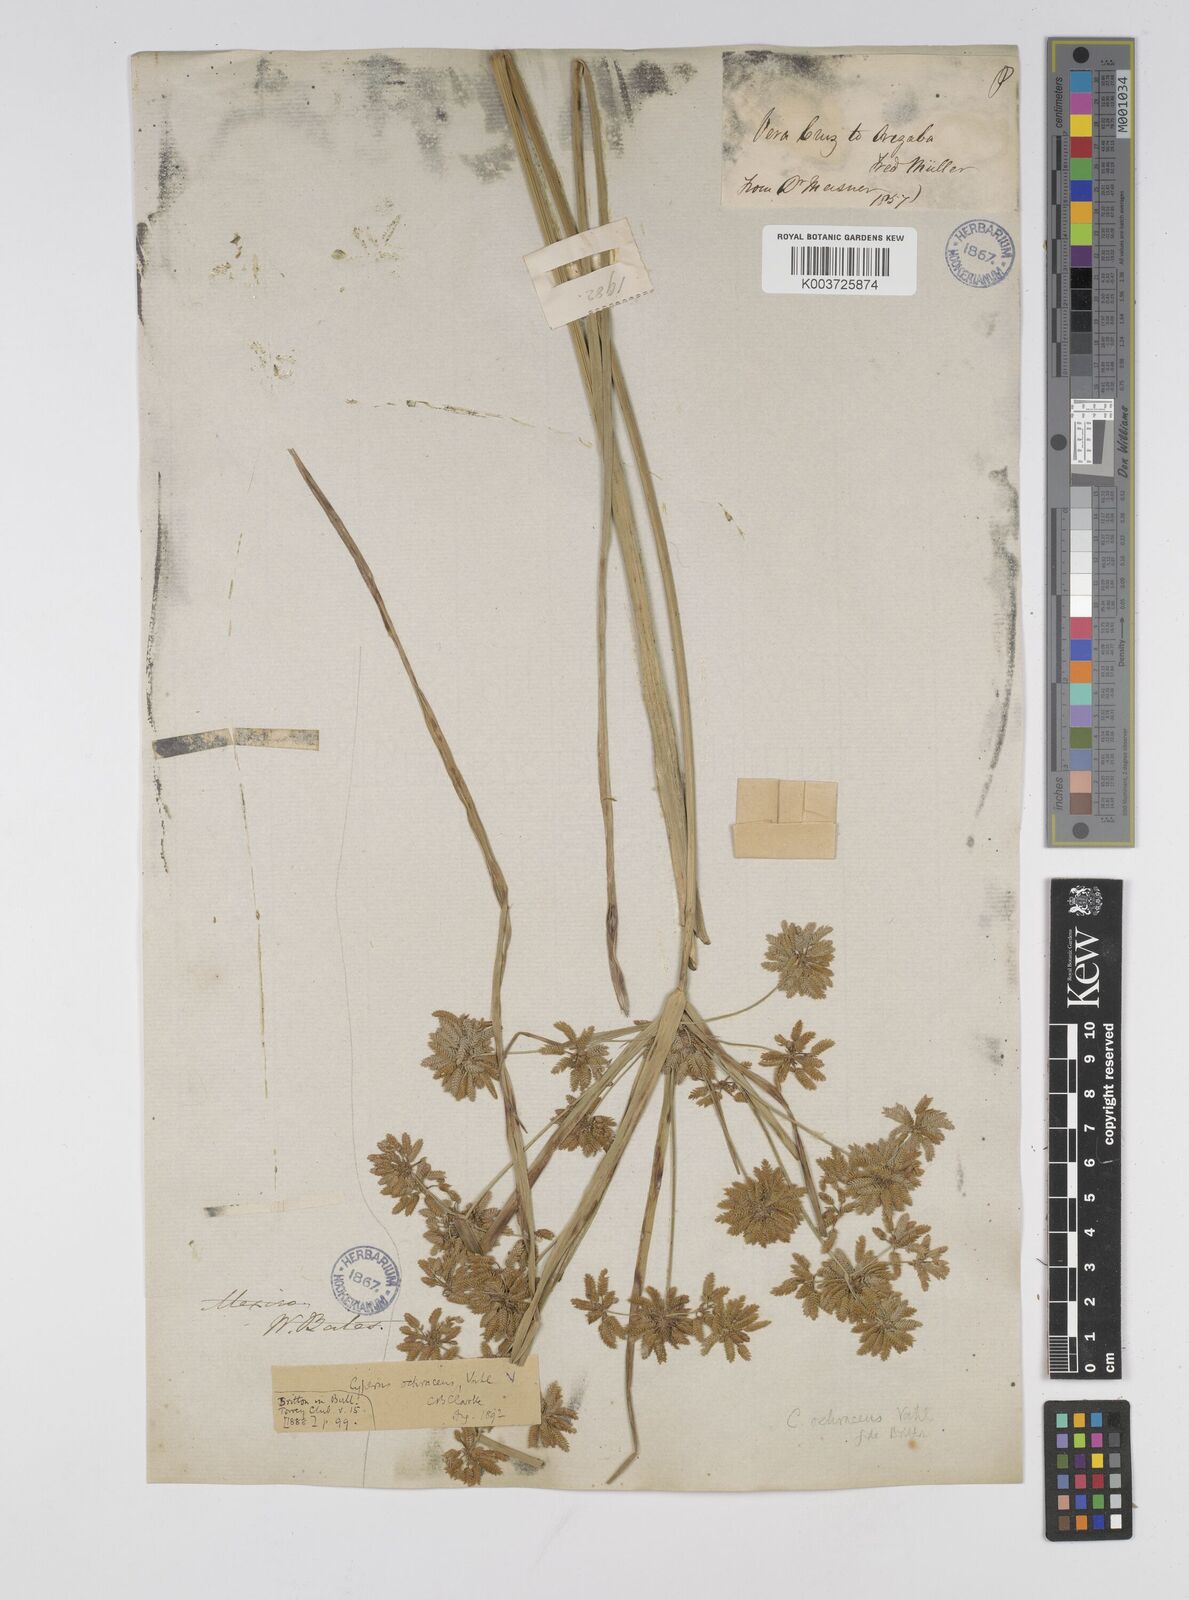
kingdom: Plantae
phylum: Tracheophyta
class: Liliopsida
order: Poales
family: Cyperaceae
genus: Cyperus
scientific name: Cyperus ochraceus
